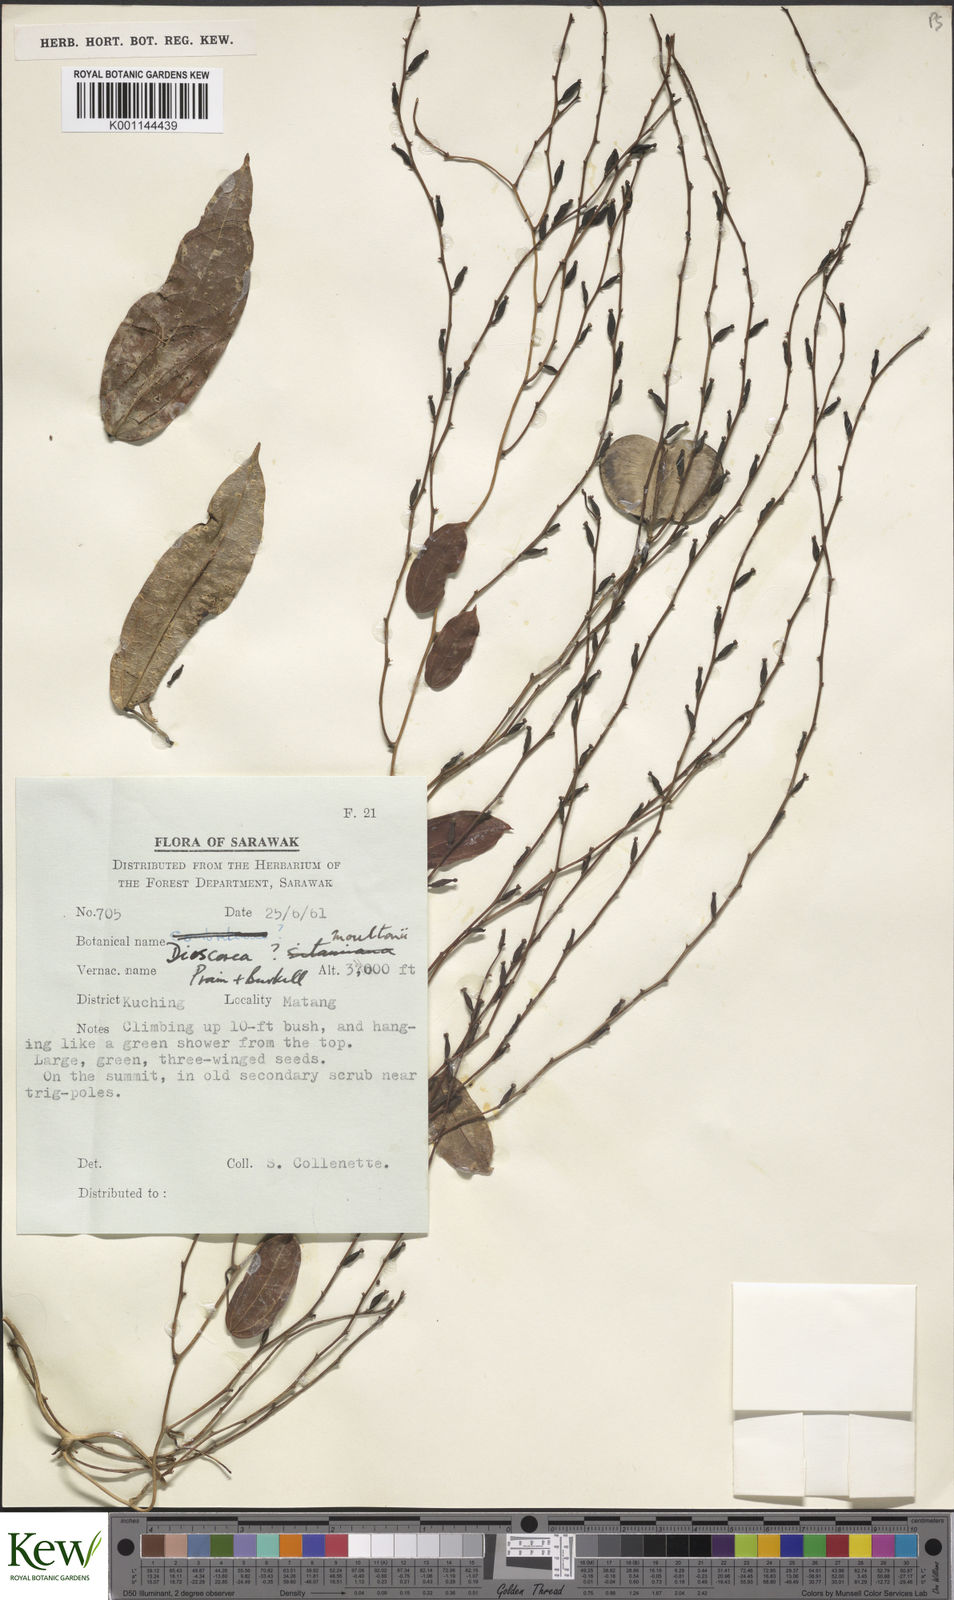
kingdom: Plantae
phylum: Tracheophyta
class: Liliopsida
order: Dioscoreales
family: Dioscoreaceae
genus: Dioscorea
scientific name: Dioscorea moultonii
